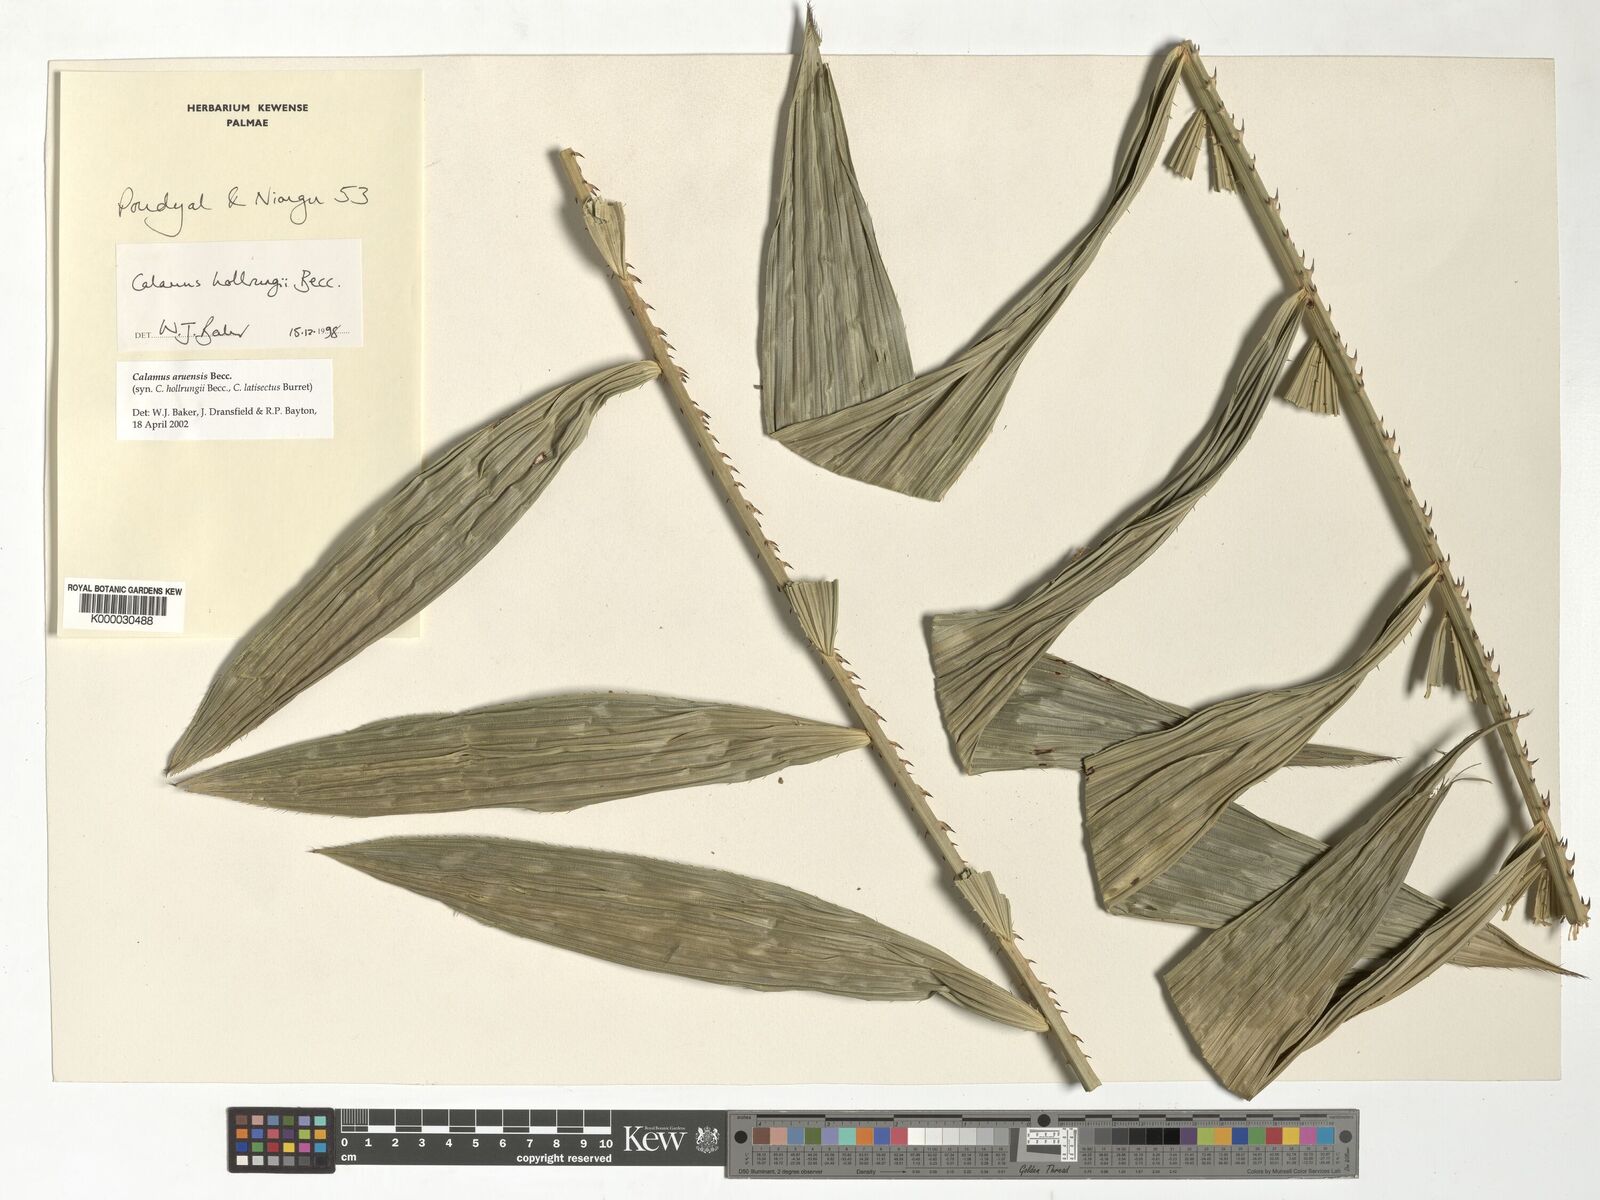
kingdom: Plantae
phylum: Tracheophyta
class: Liliopsida
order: Arecales
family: Arecaceae
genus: Calamus
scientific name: Calamus aruensis
